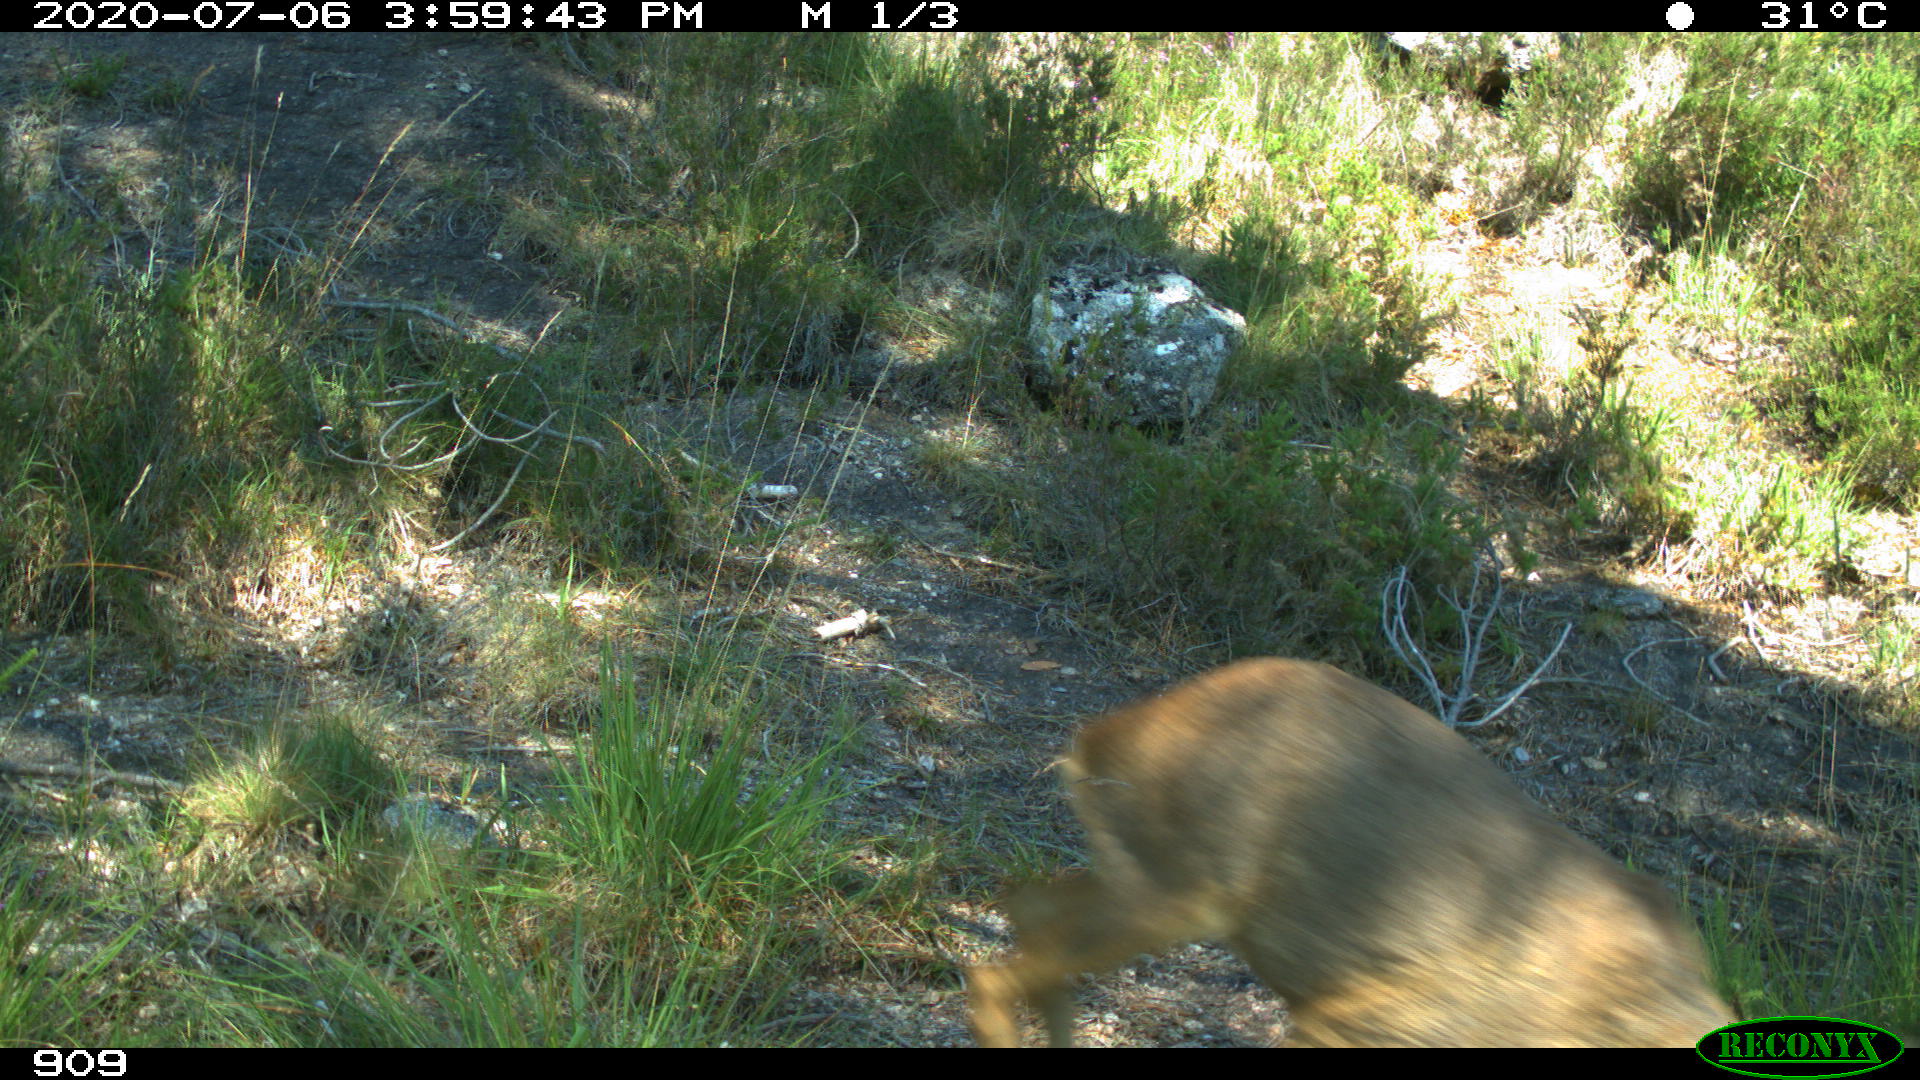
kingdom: Animalia
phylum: Chordata
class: Mammalia
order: Artiodactyla
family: Cervidae
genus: Capreolus
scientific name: Capreolus capreolus
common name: Western roe deer
